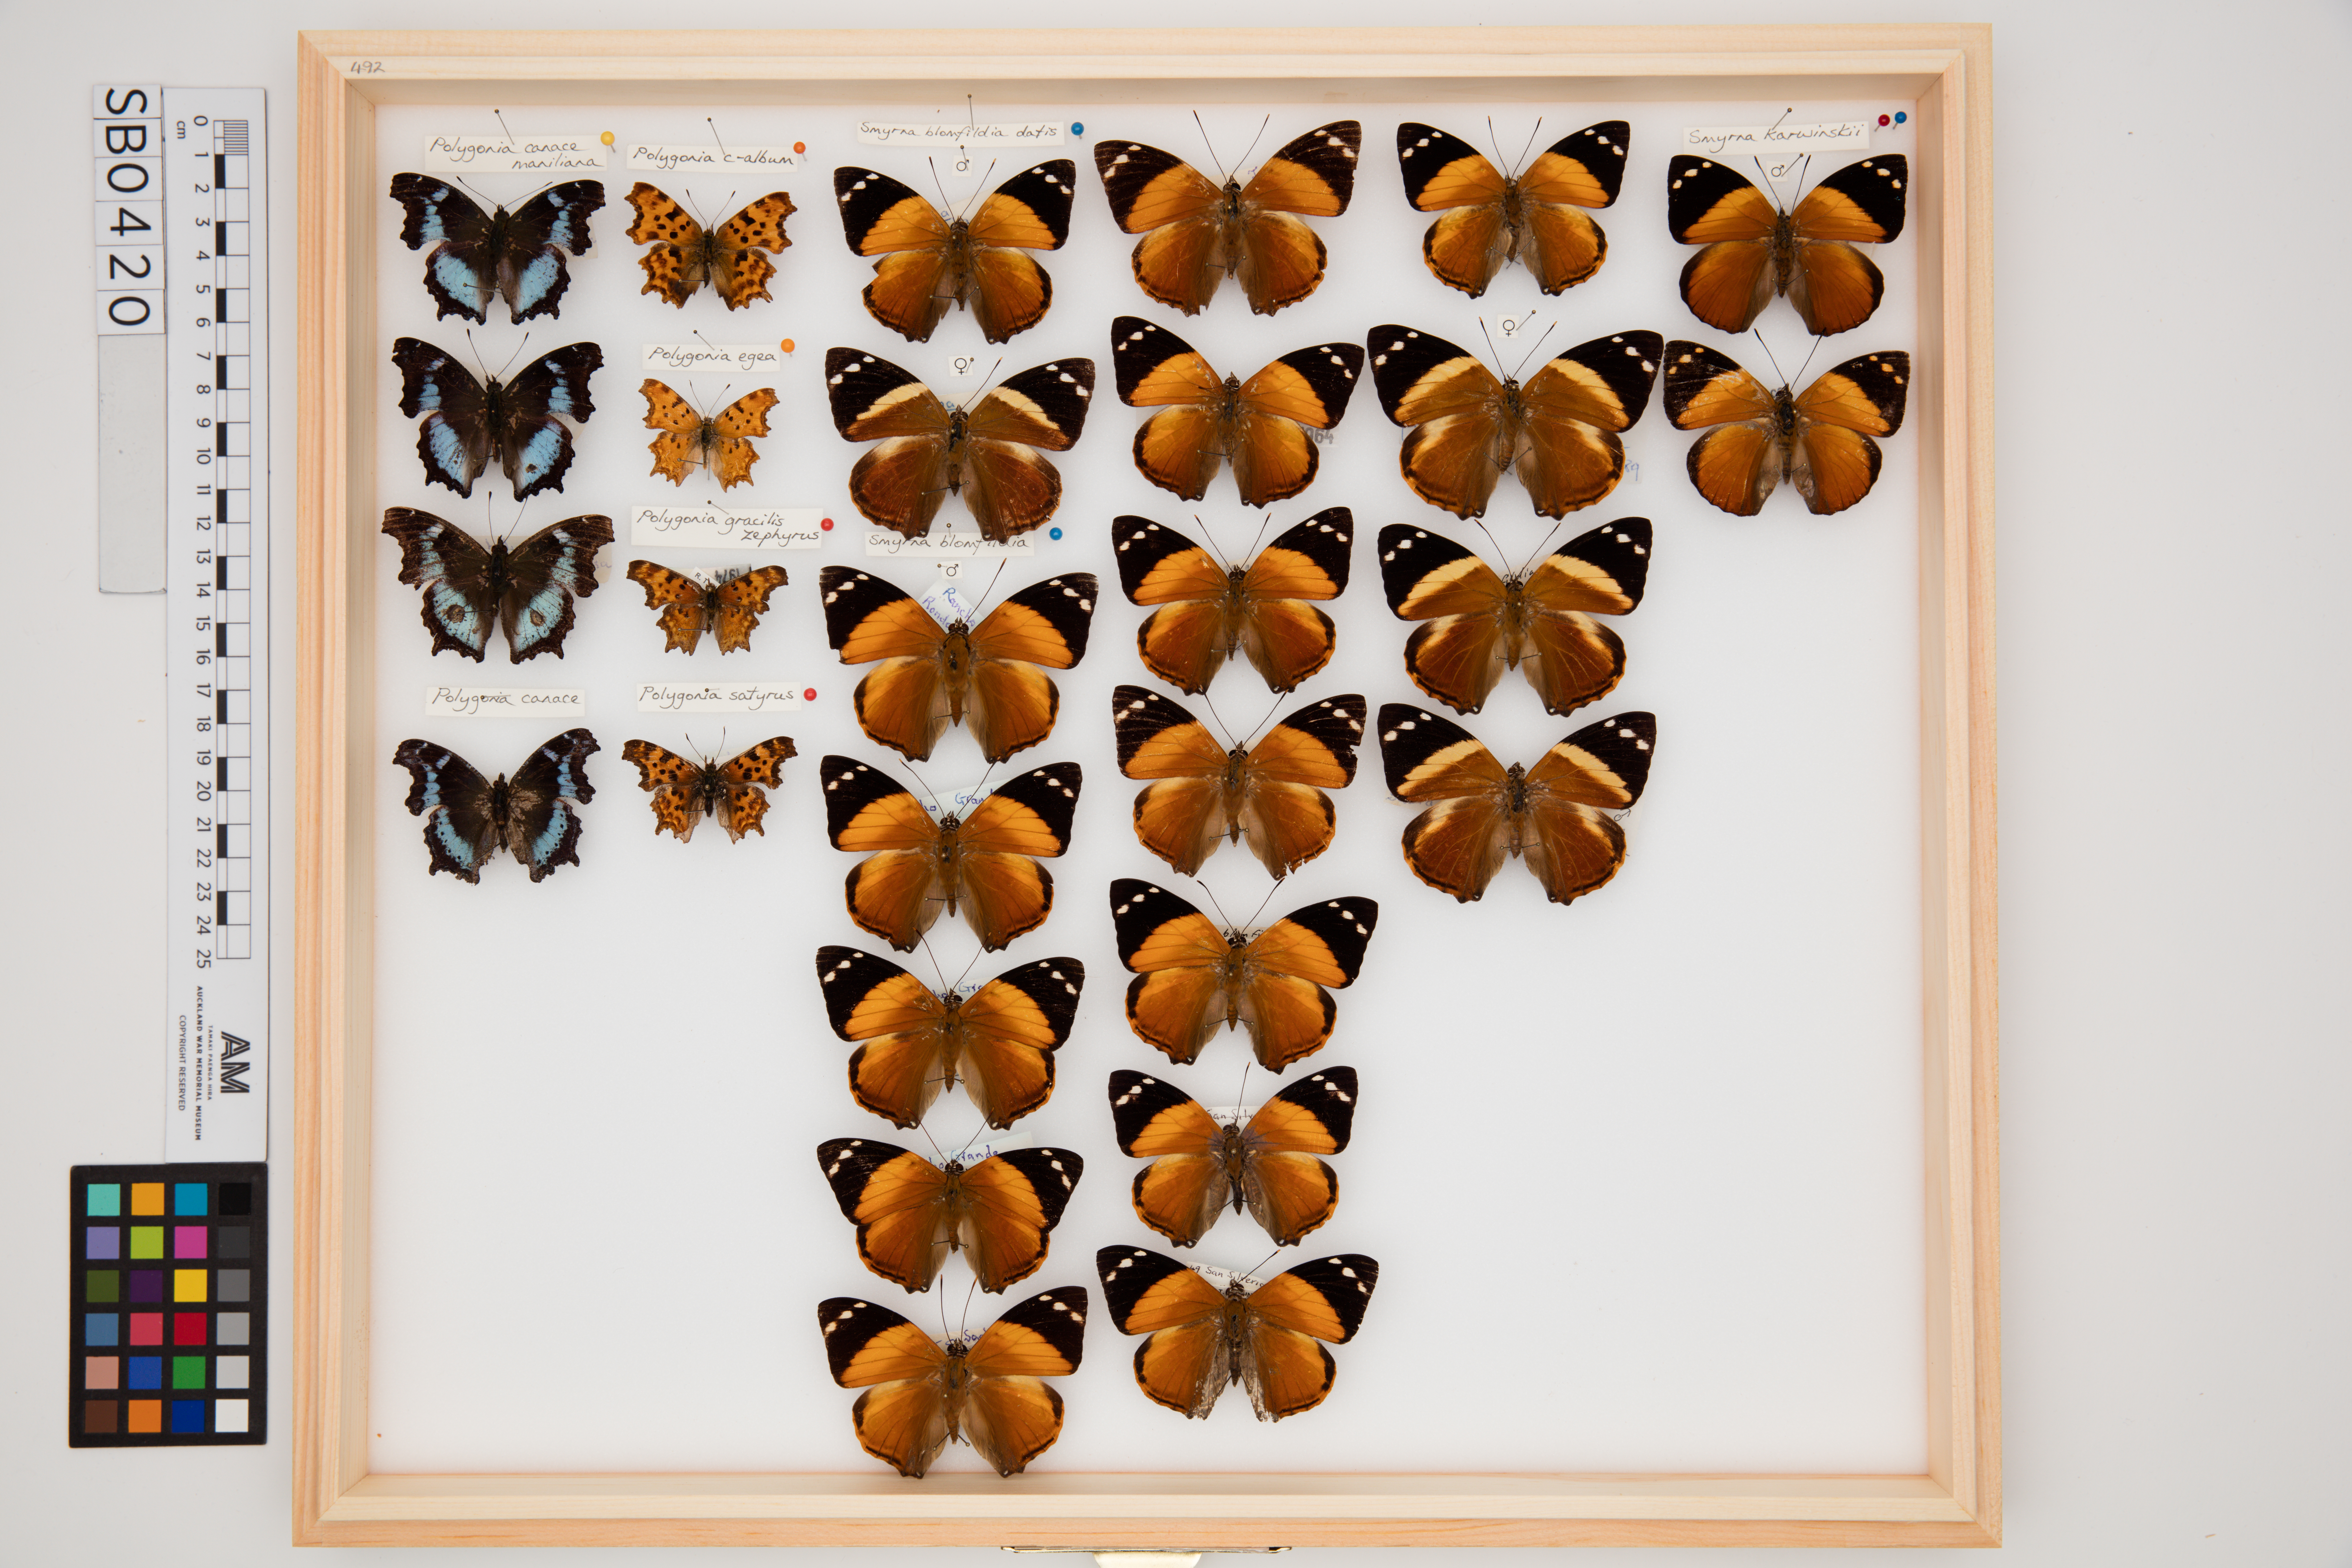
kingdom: Animalia
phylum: Arthropoda
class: Insecta
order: Lepidoptera
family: Nymphalidae
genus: Polygonia
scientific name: Polygonia satyrus
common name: Satyr angle wing
